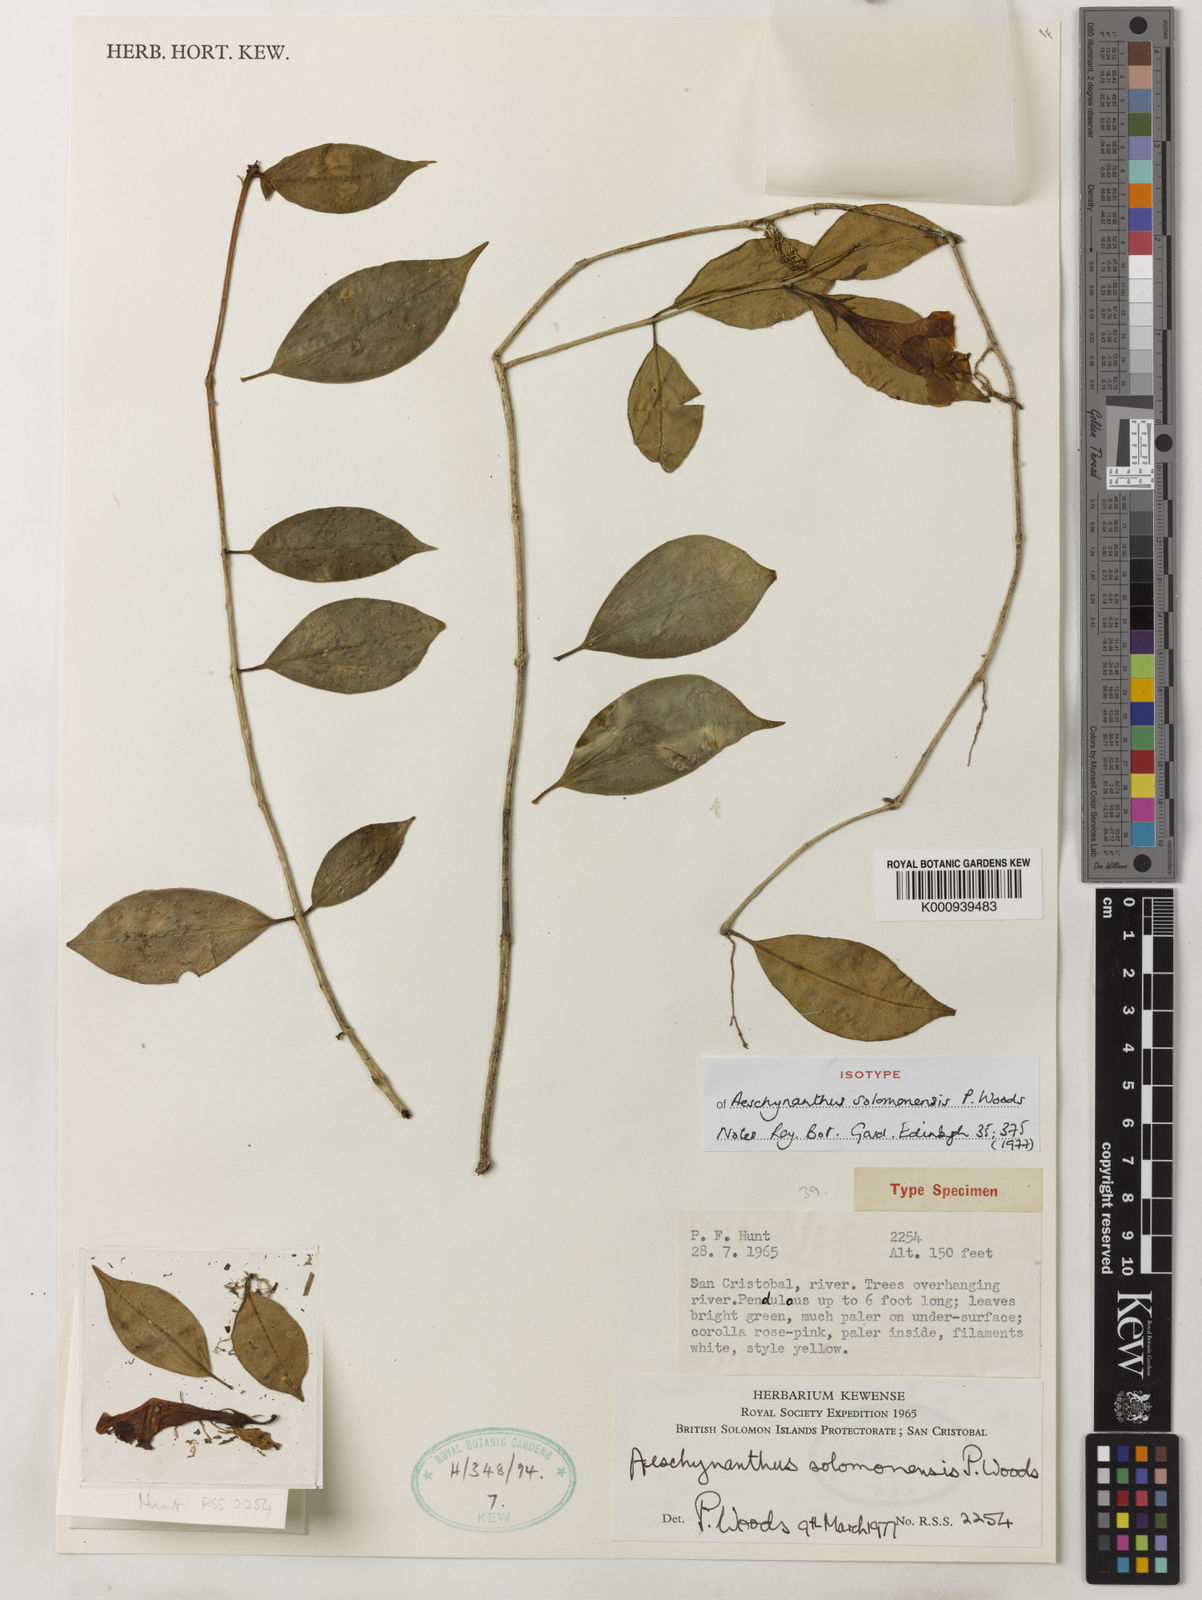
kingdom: Plantae
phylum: Tracheophyta
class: Magnoliopsida
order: Lamiales
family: Gesneriaceae
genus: Aeschynanthus
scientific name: Aeschynanthus solomonensis
